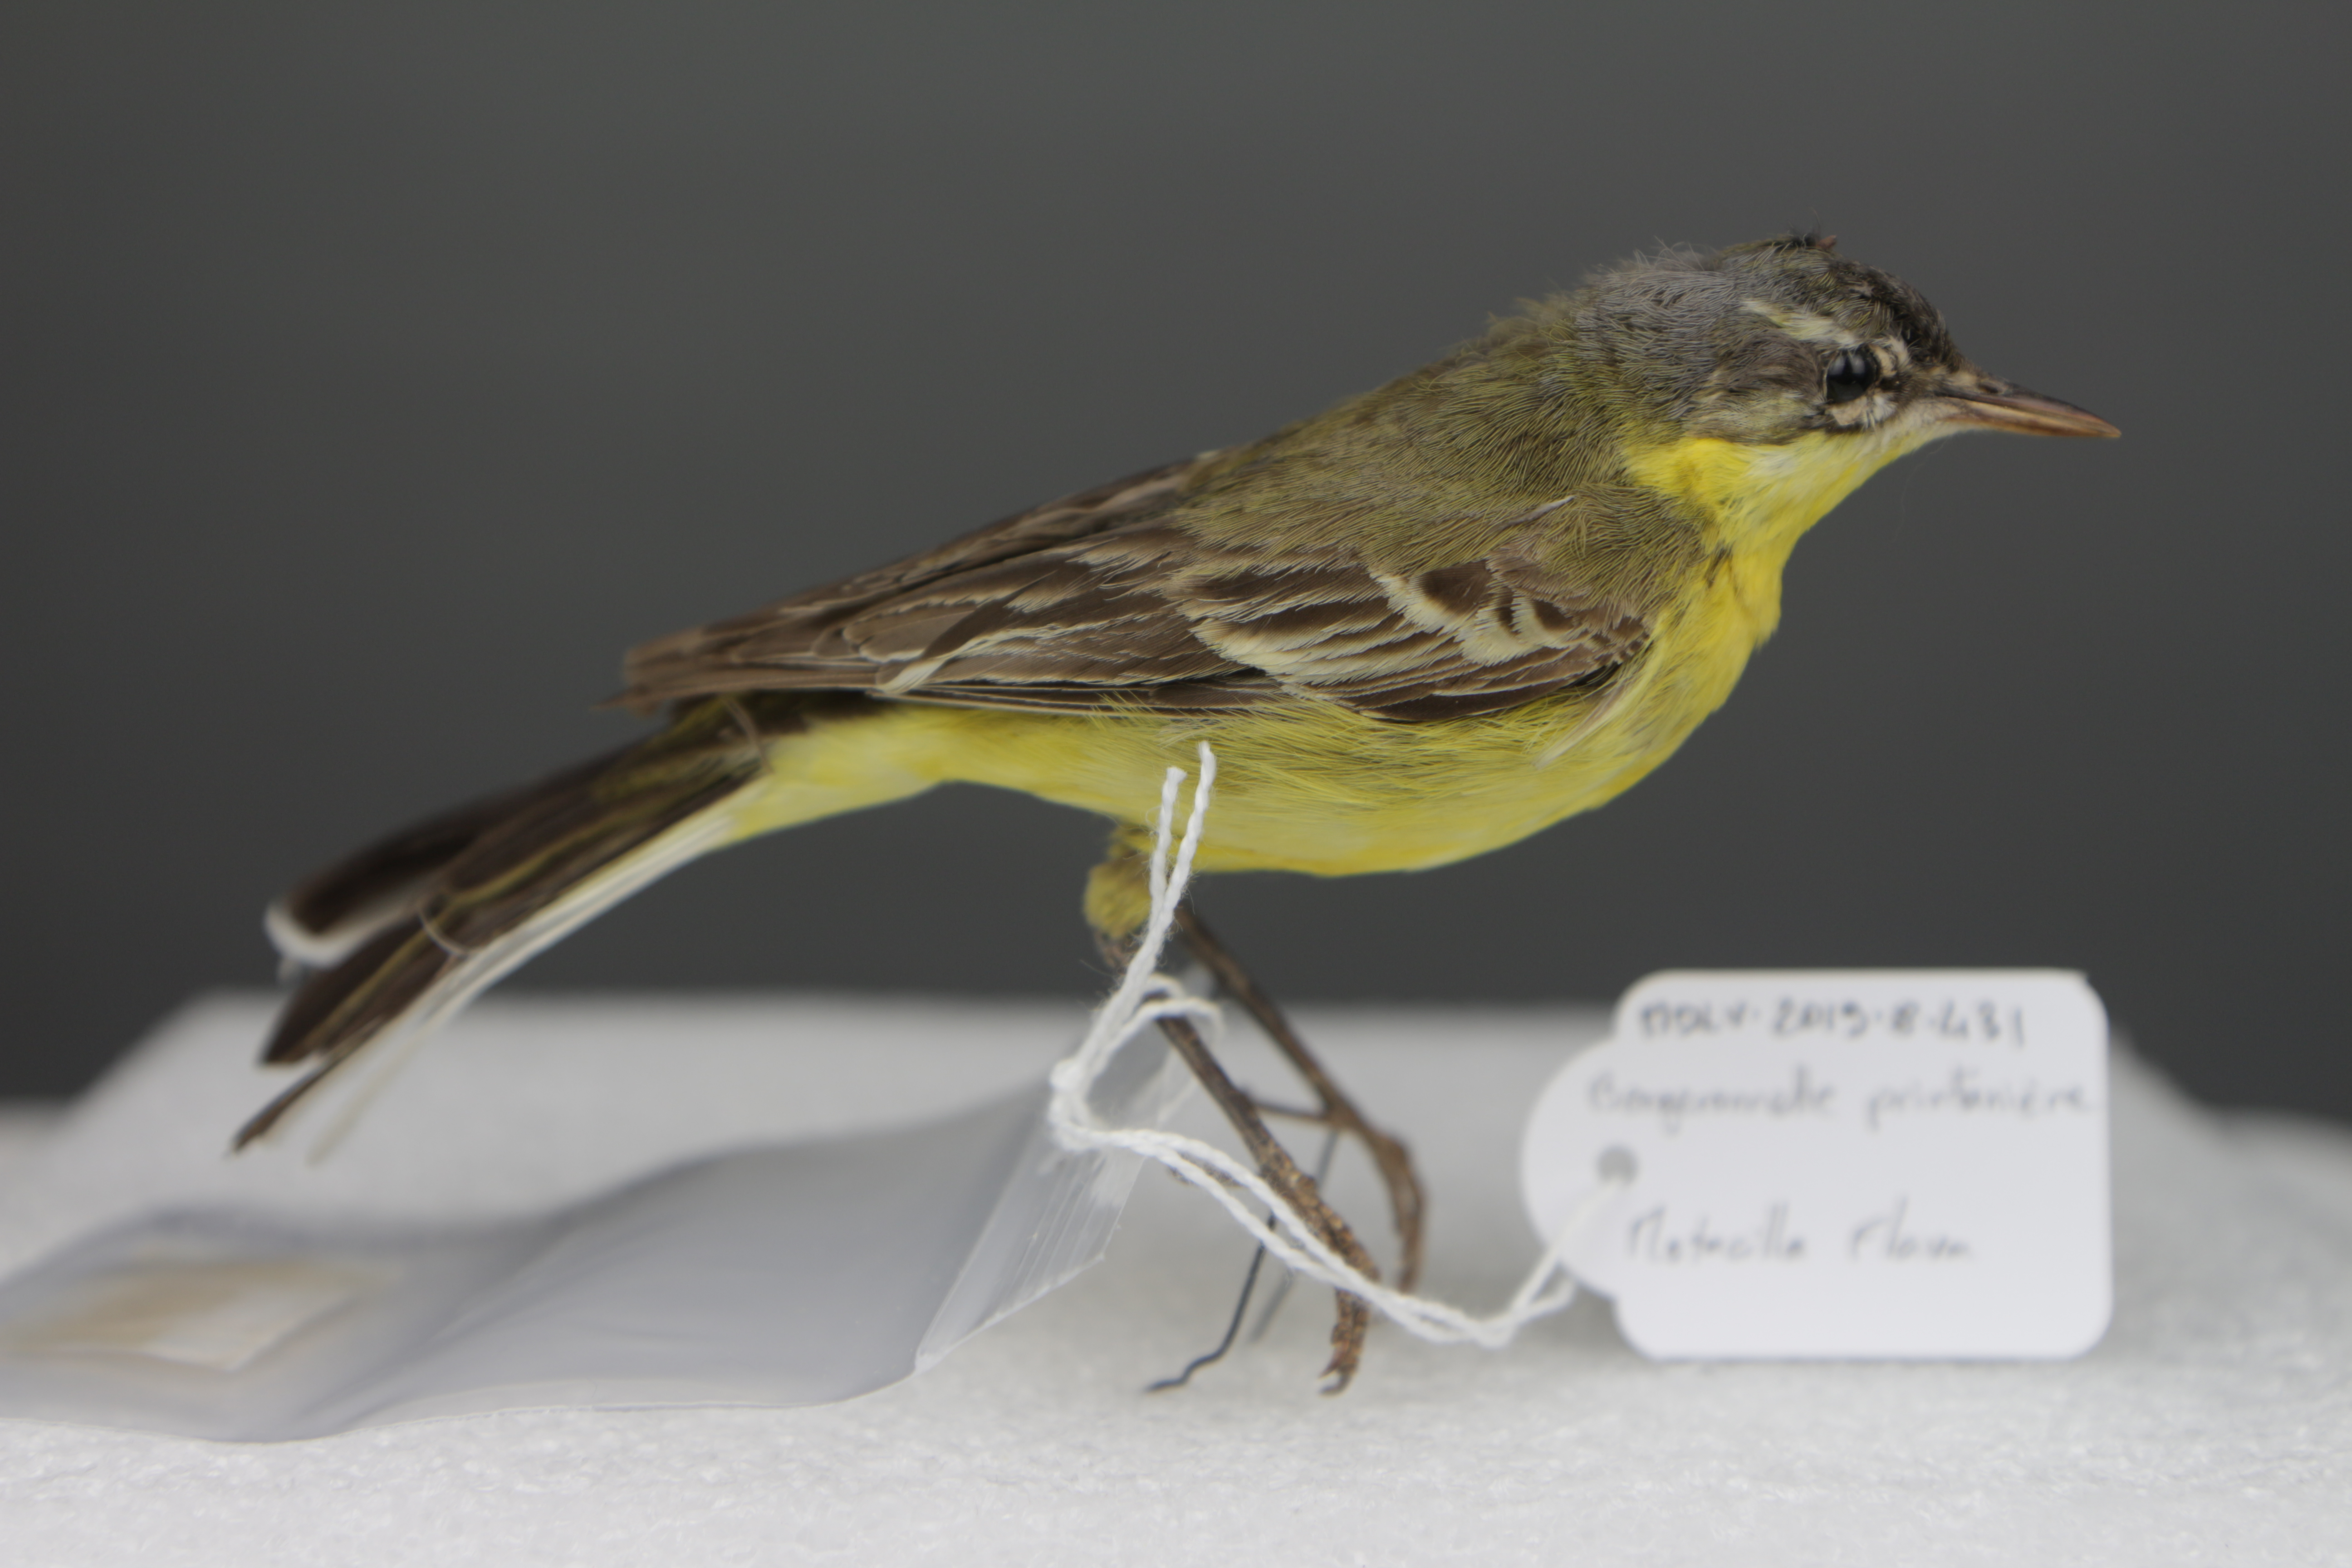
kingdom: Animalia
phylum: Chordata
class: Aves
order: Passeriformes
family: Motacillidae
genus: Motacilla
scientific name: Motacilla flava
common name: Western yellow wagtail
